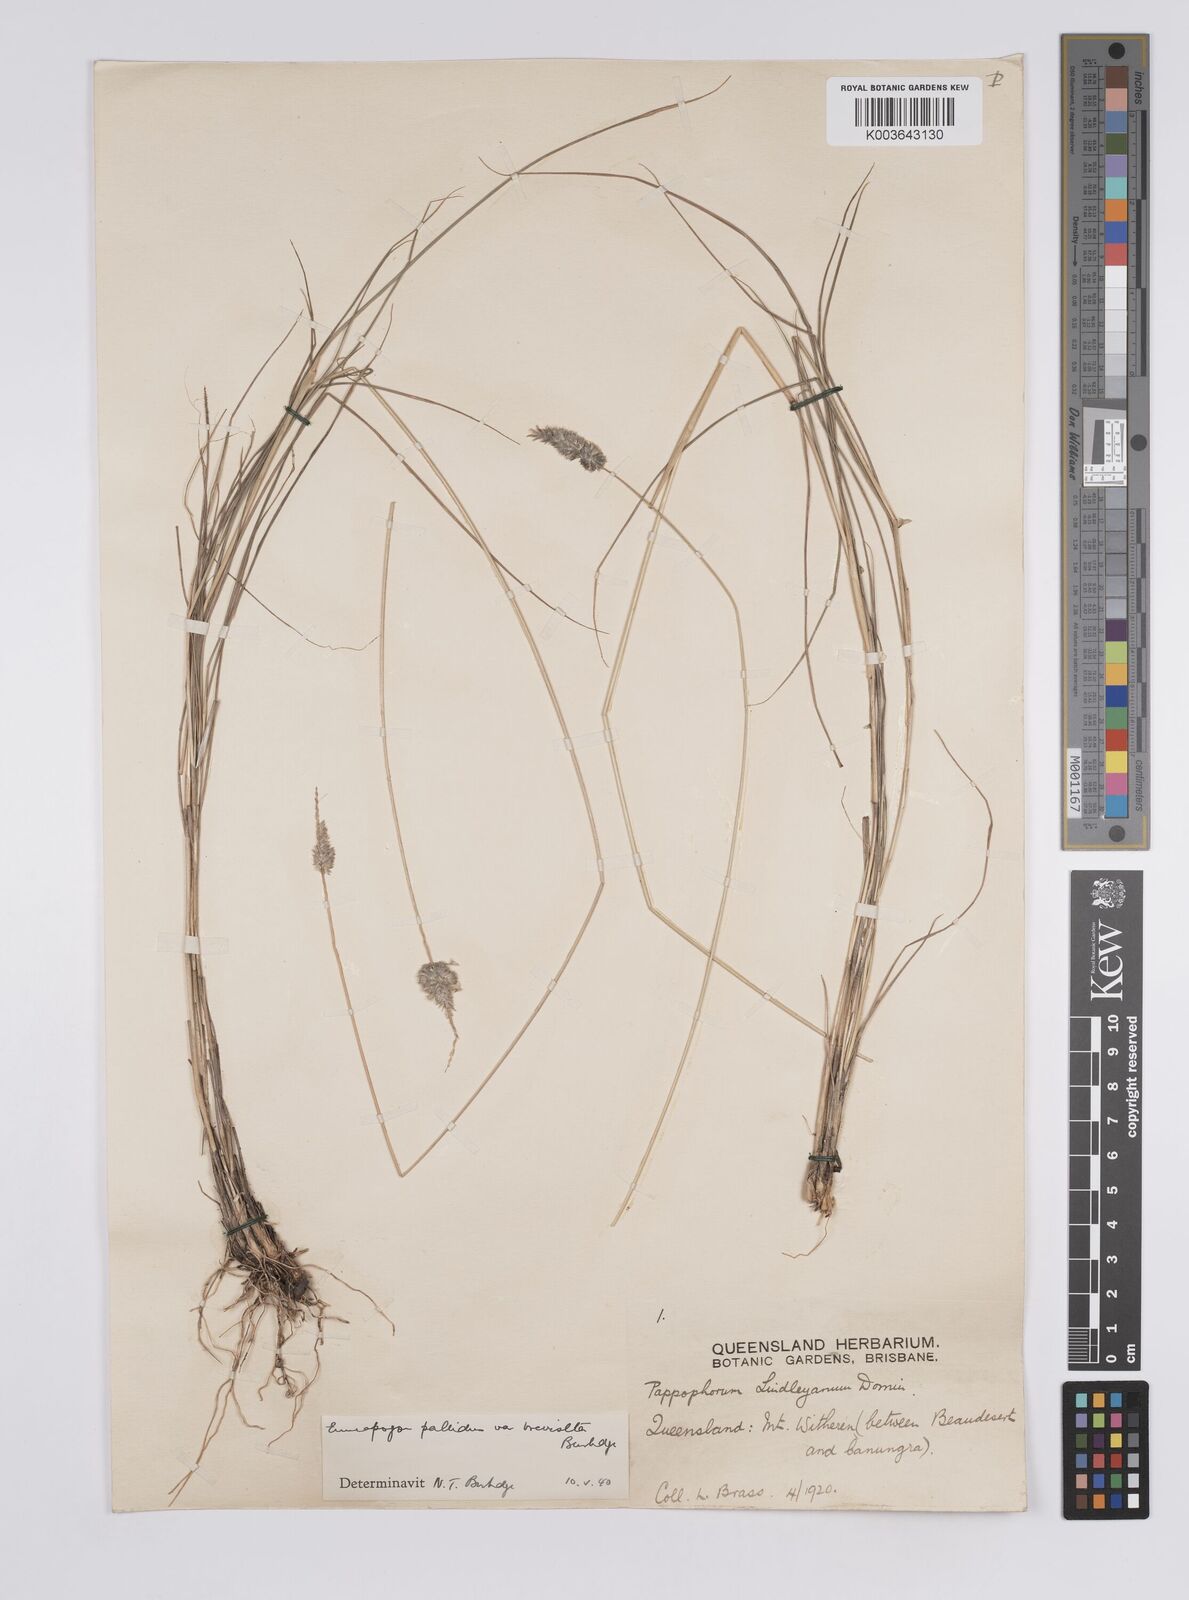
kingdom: Plantae
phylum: Tracheophyta
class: Liliopsida
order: Poales
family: Poaceae
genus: Enneapogon
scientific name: Enneapogon lindleyanus
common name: Conetop nineawn
